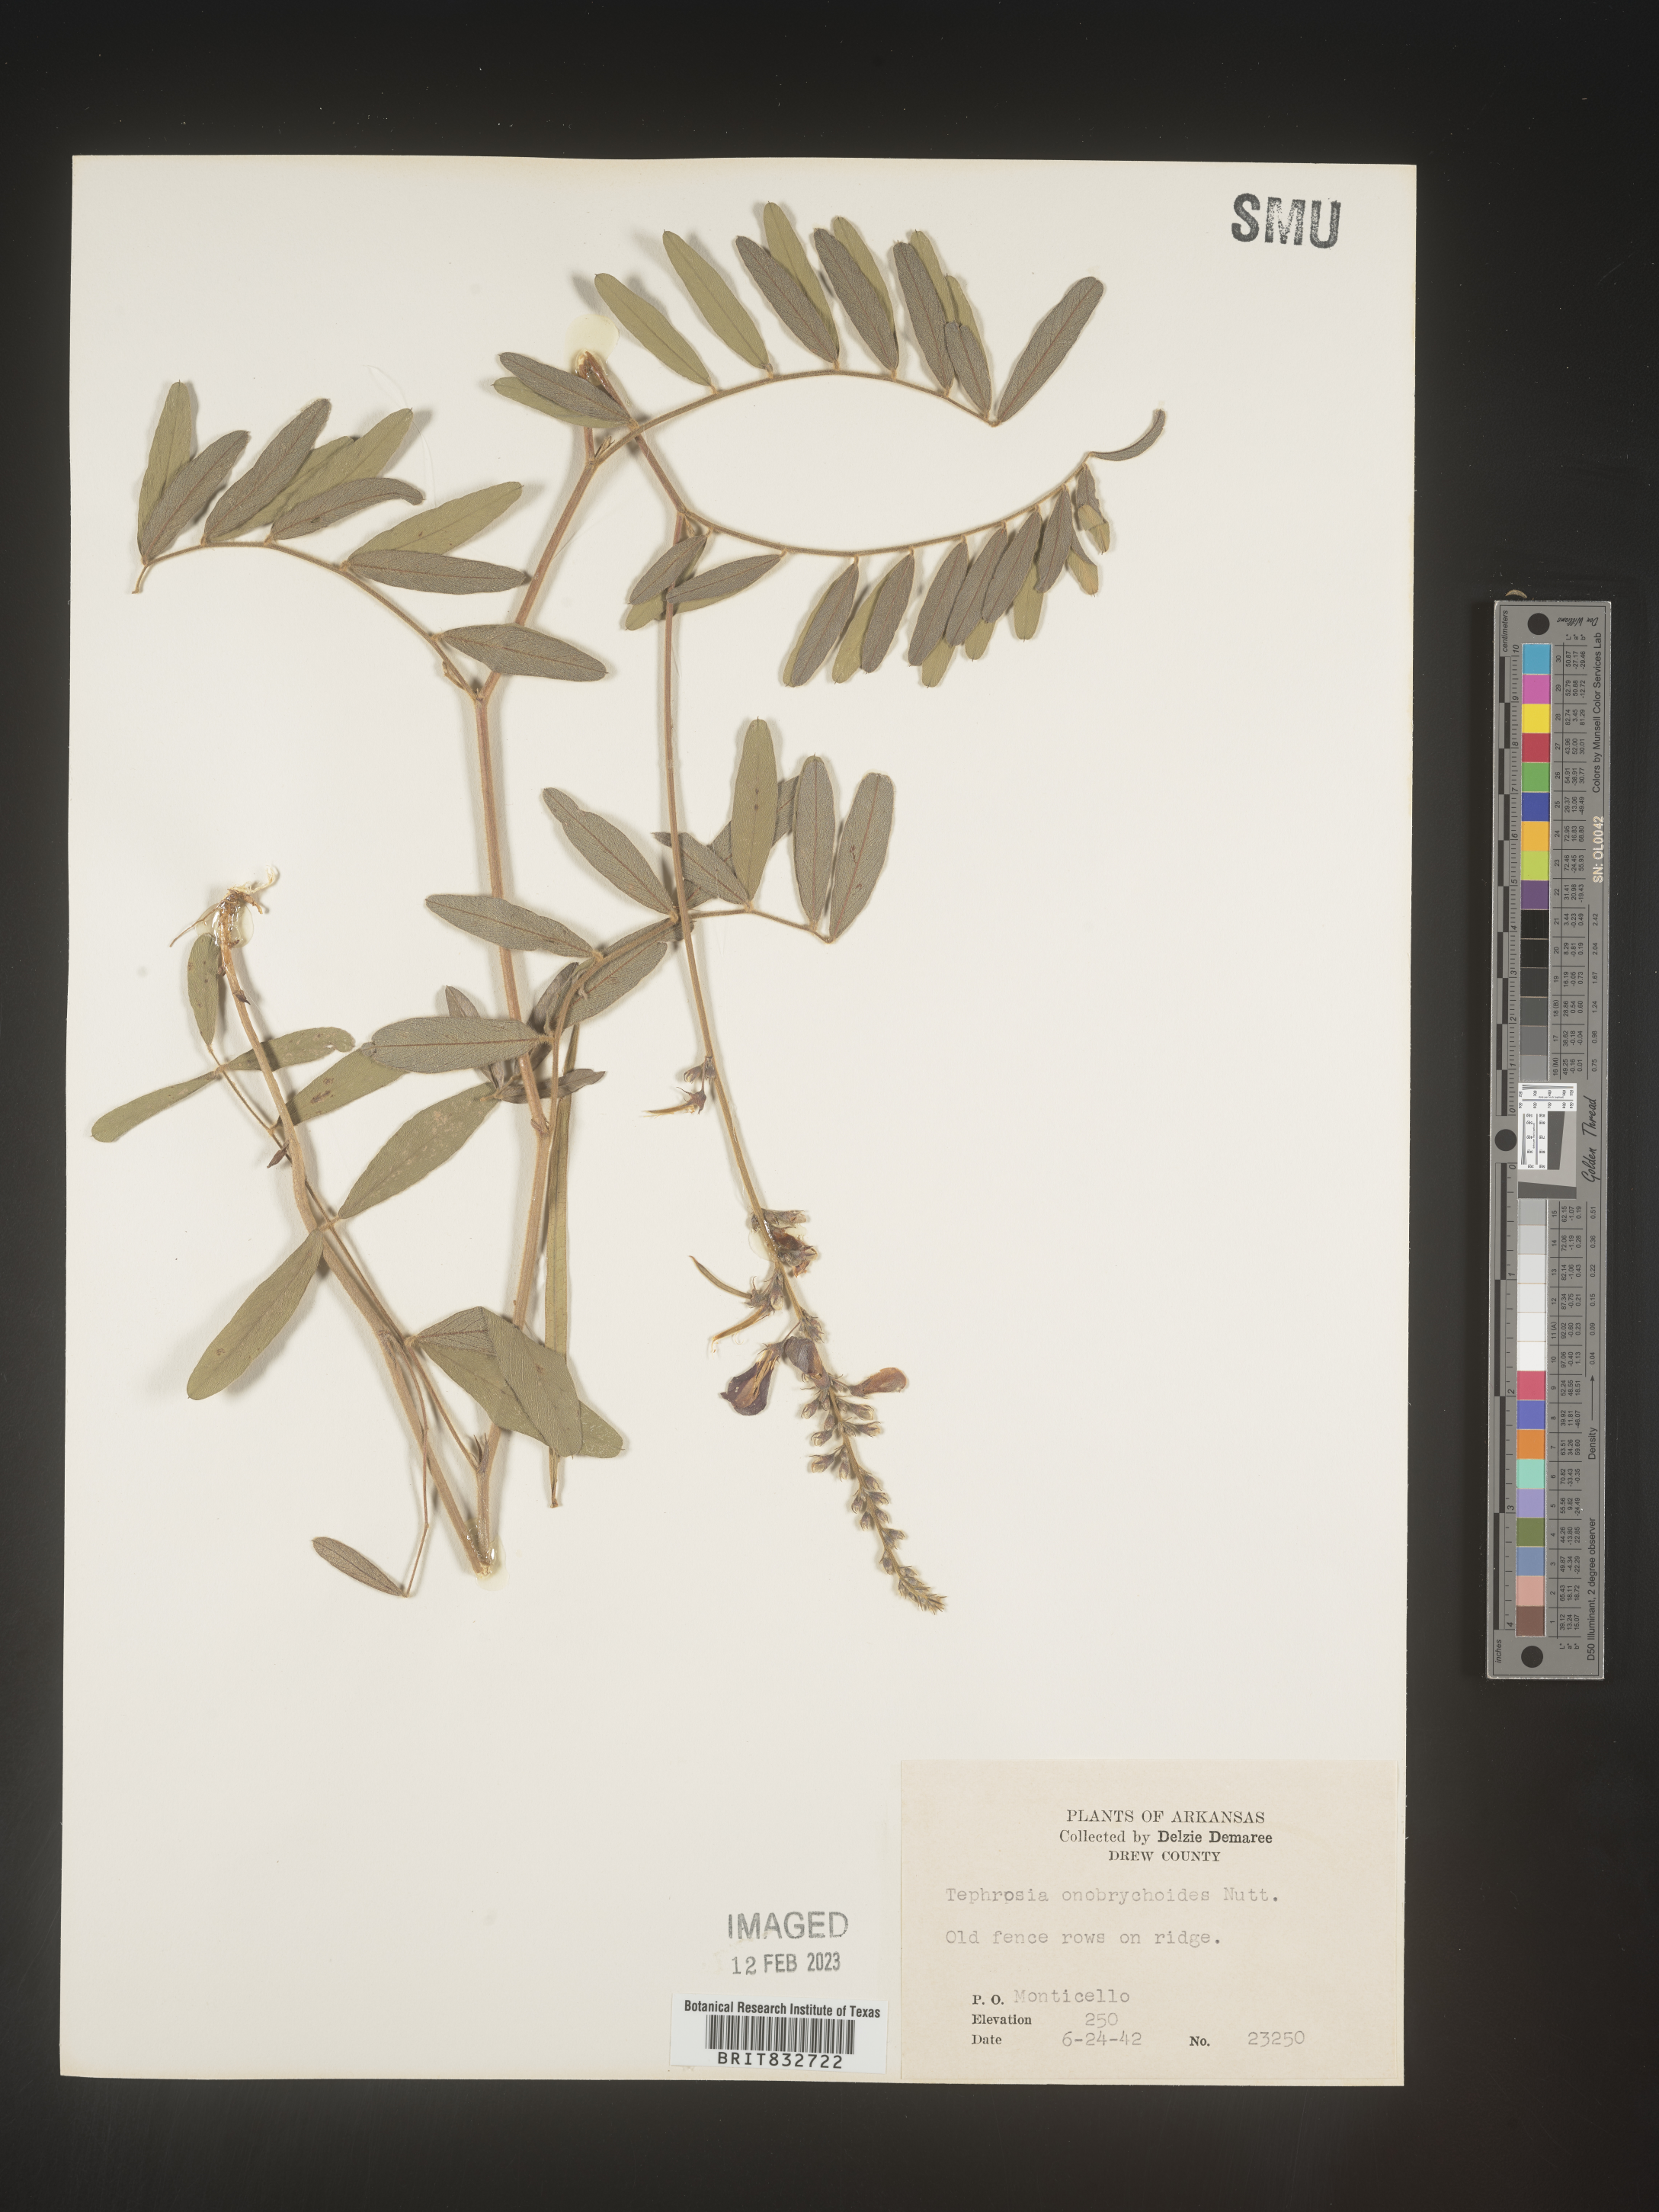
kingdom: Plantae
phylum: Tracheophyta
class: Magnoliopsida
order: Fabales
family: Fabaceae
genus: Tephrosia
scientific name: Tephrosia onobrychoides
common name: Multi-bloom hoary-pea
